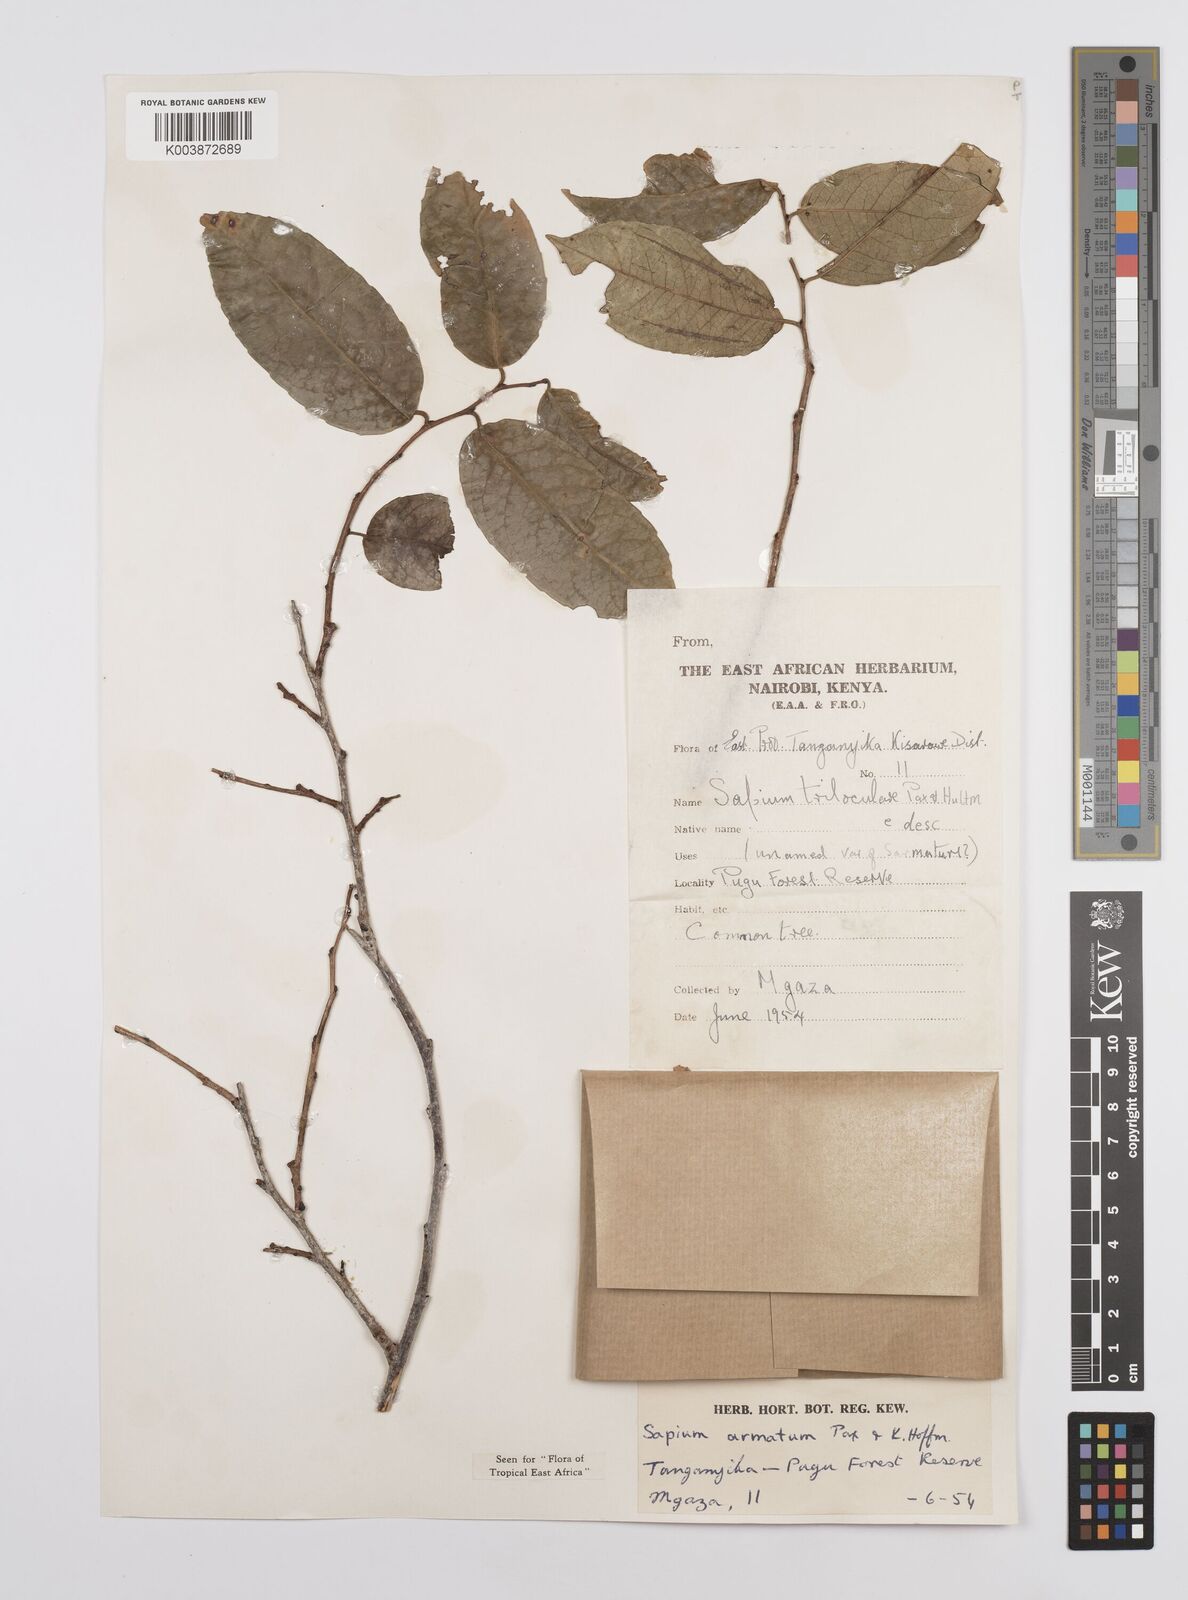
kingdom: Plantae
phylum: Tracheophyta
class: Magnoliopsida
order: Malpighiales
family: Euphorbiaceae
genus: Sclerocroton
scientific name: Sclerocroton integerrimus
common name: Duiker berry
